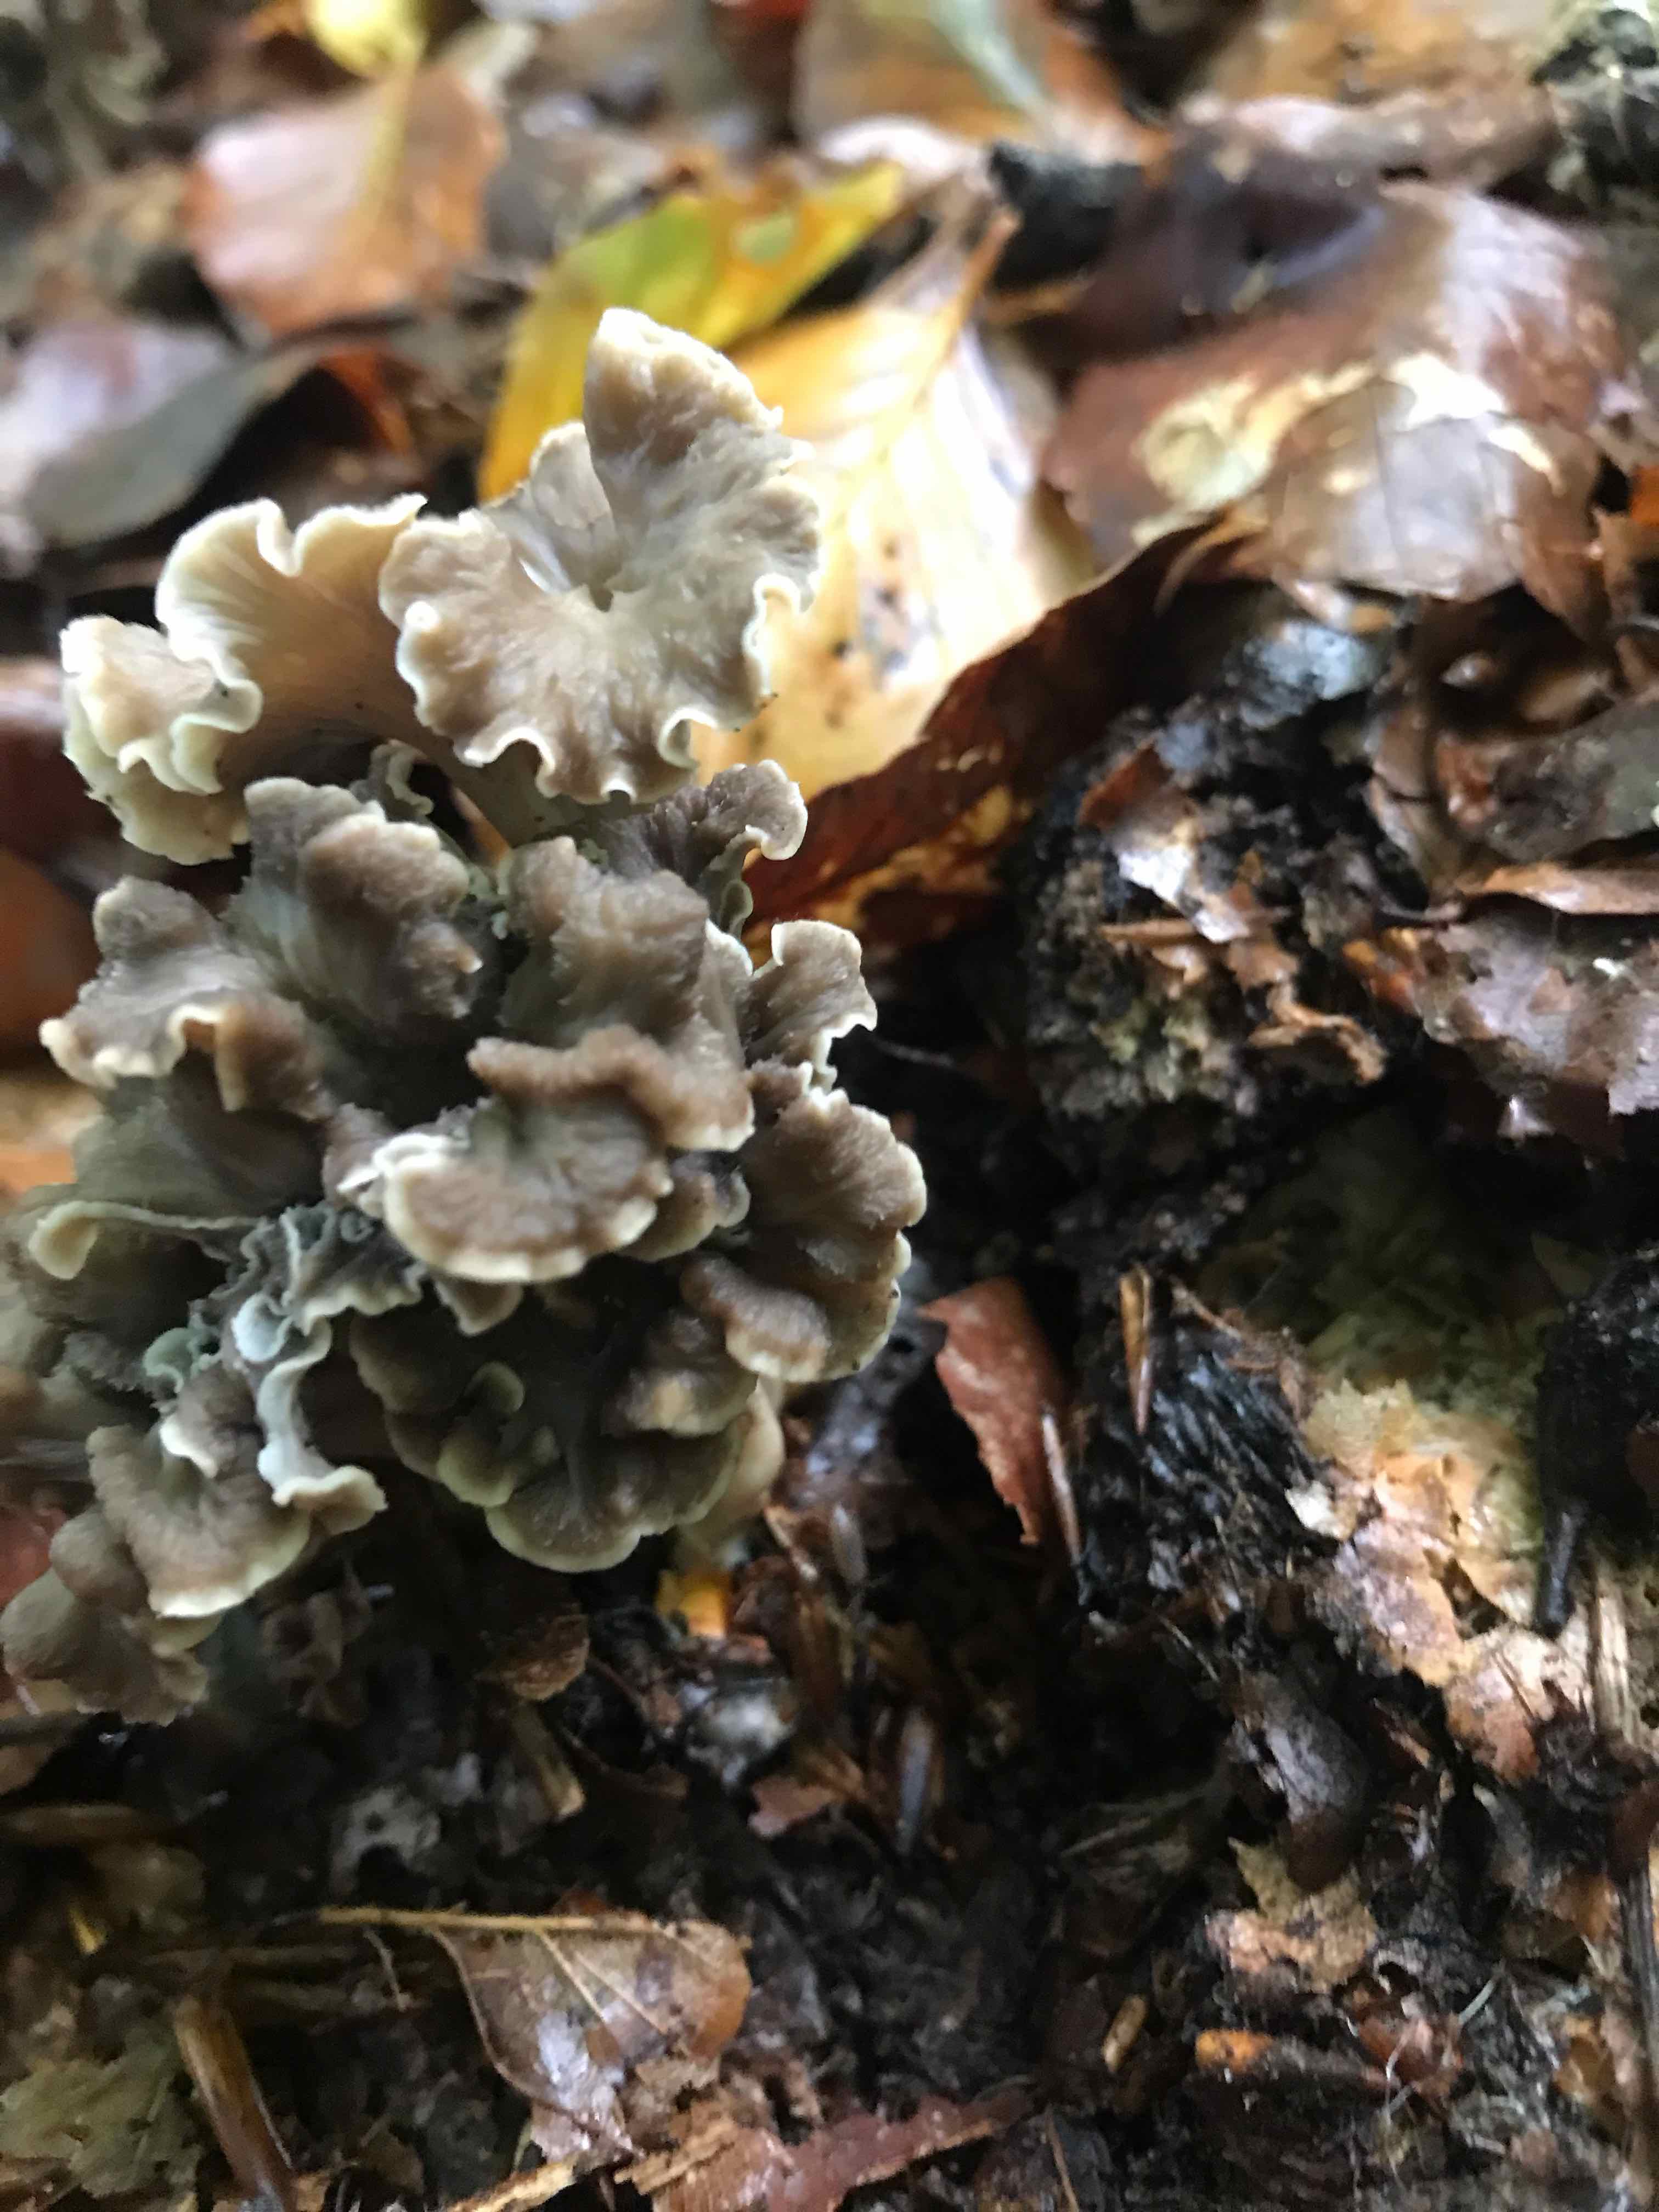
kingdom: Fungi
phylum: Basidiomycota
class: Agaricomycetes
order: Cantharellales
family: Hydnaceae
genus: Craterellus
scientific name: Craterellus undulatus
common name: liden kantarel
